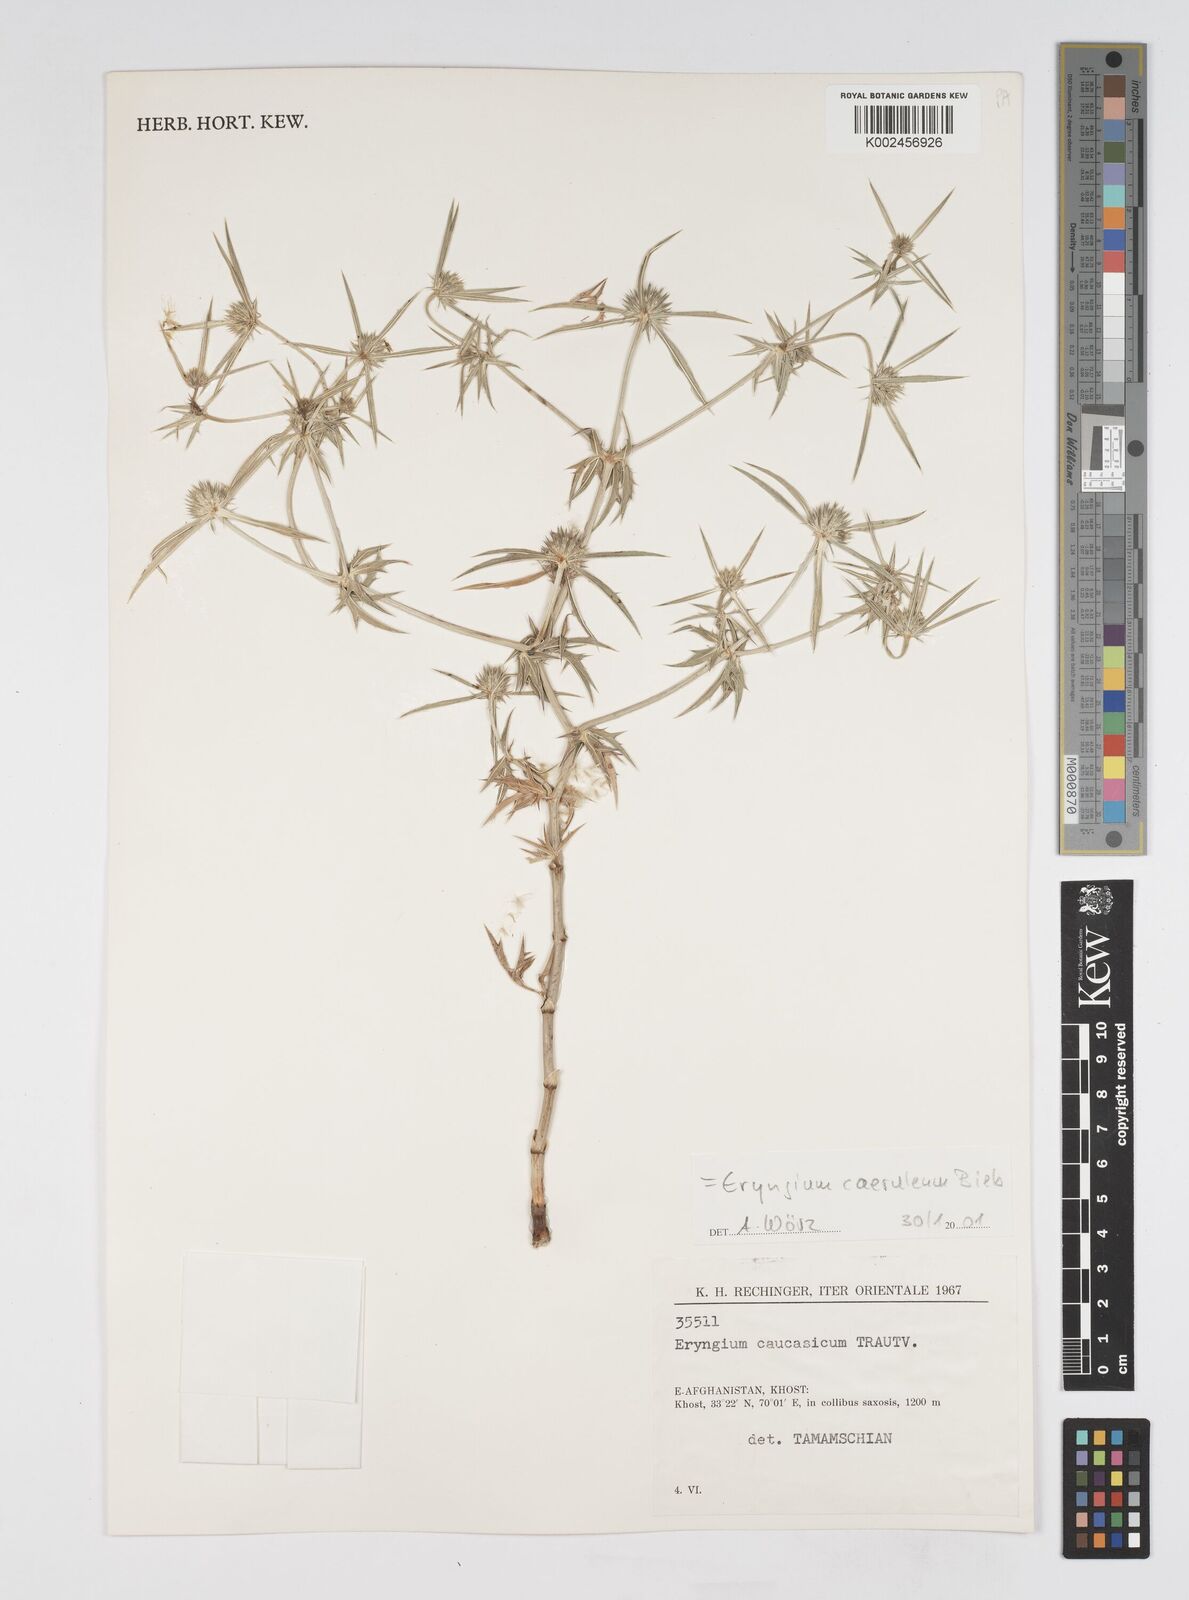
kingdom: Plantae
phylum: Tracheophyta
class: Magnoliopsida
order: Apiales
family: Apiaceae
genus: Eryngium
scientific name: Eryngium caeruleum
